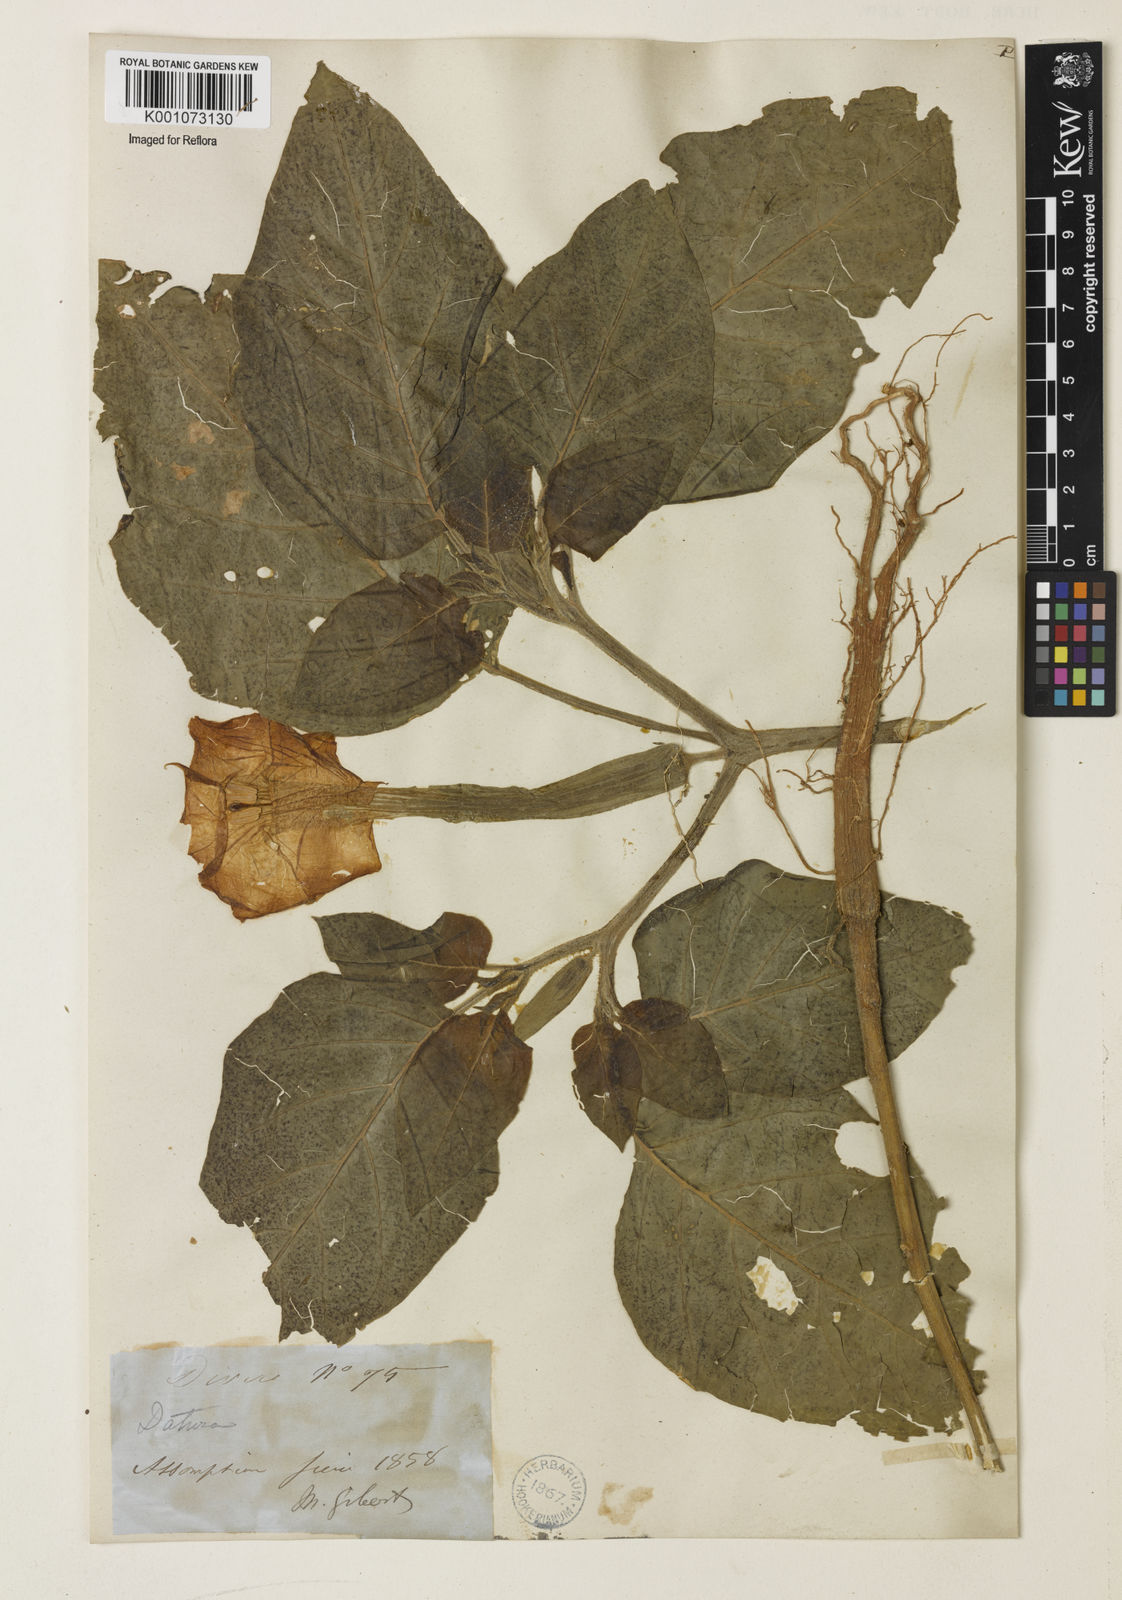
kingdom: Plantae
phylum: Tracheophyta
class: Magnoliopsida
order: Solanales
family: Solanaceae
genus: Datura
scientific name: Datura
